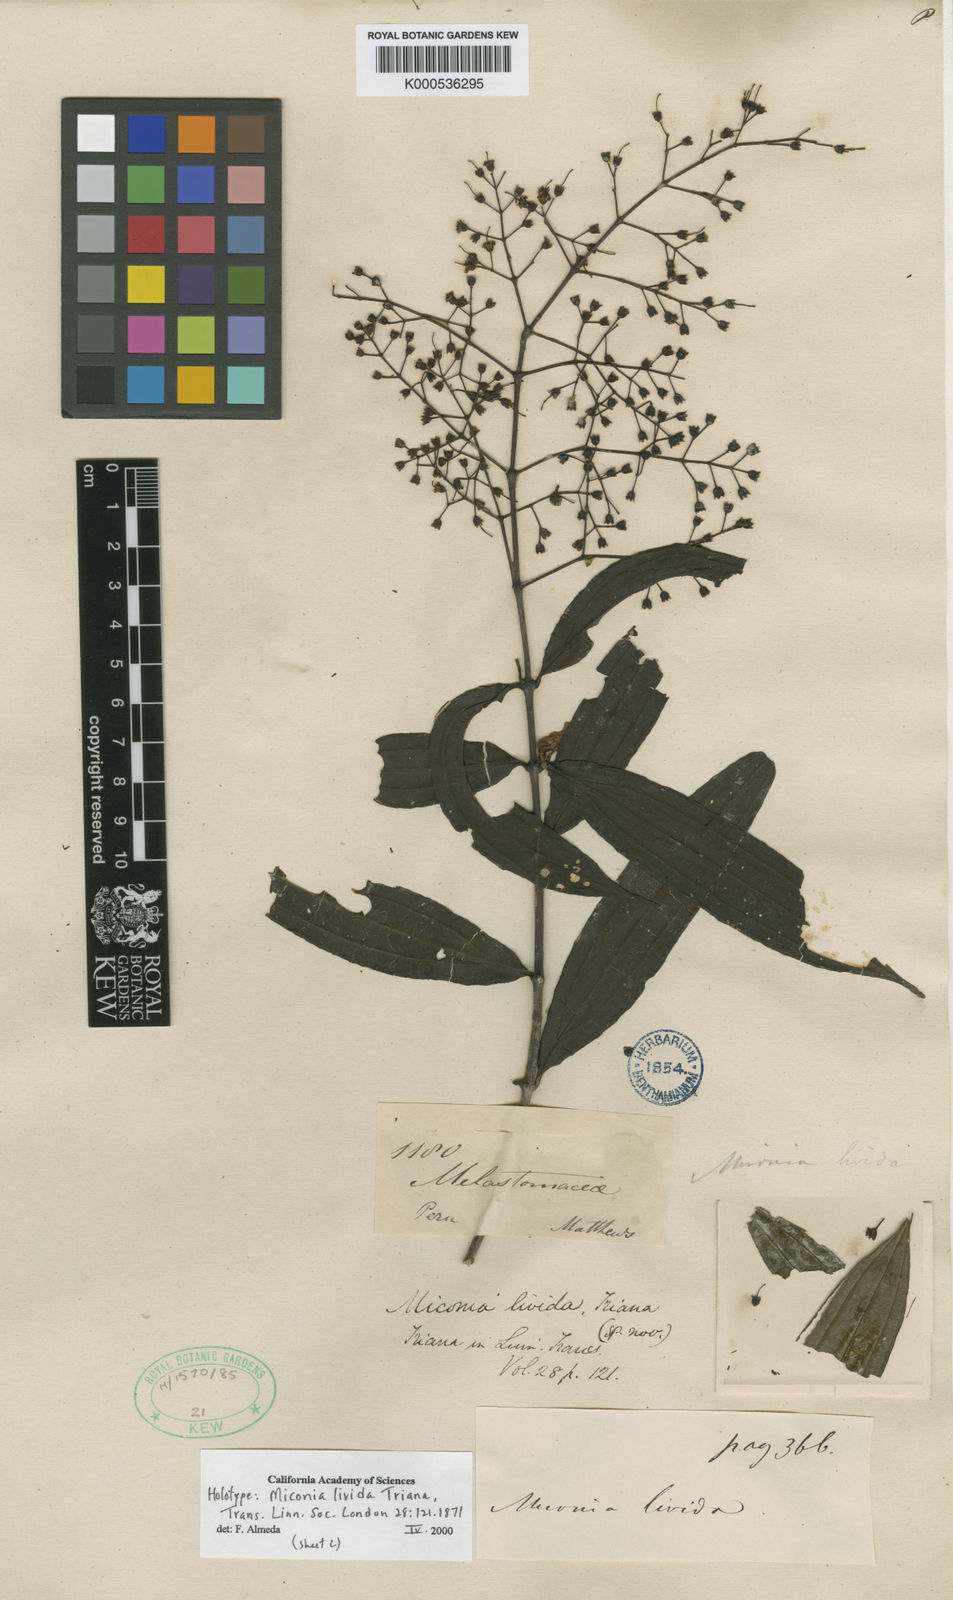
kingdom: Plantae
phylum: Tracheophyta
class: Magnoliopsida
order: Myrtales
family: Melastomataceae
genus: Miconia
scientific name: Miconia livida
